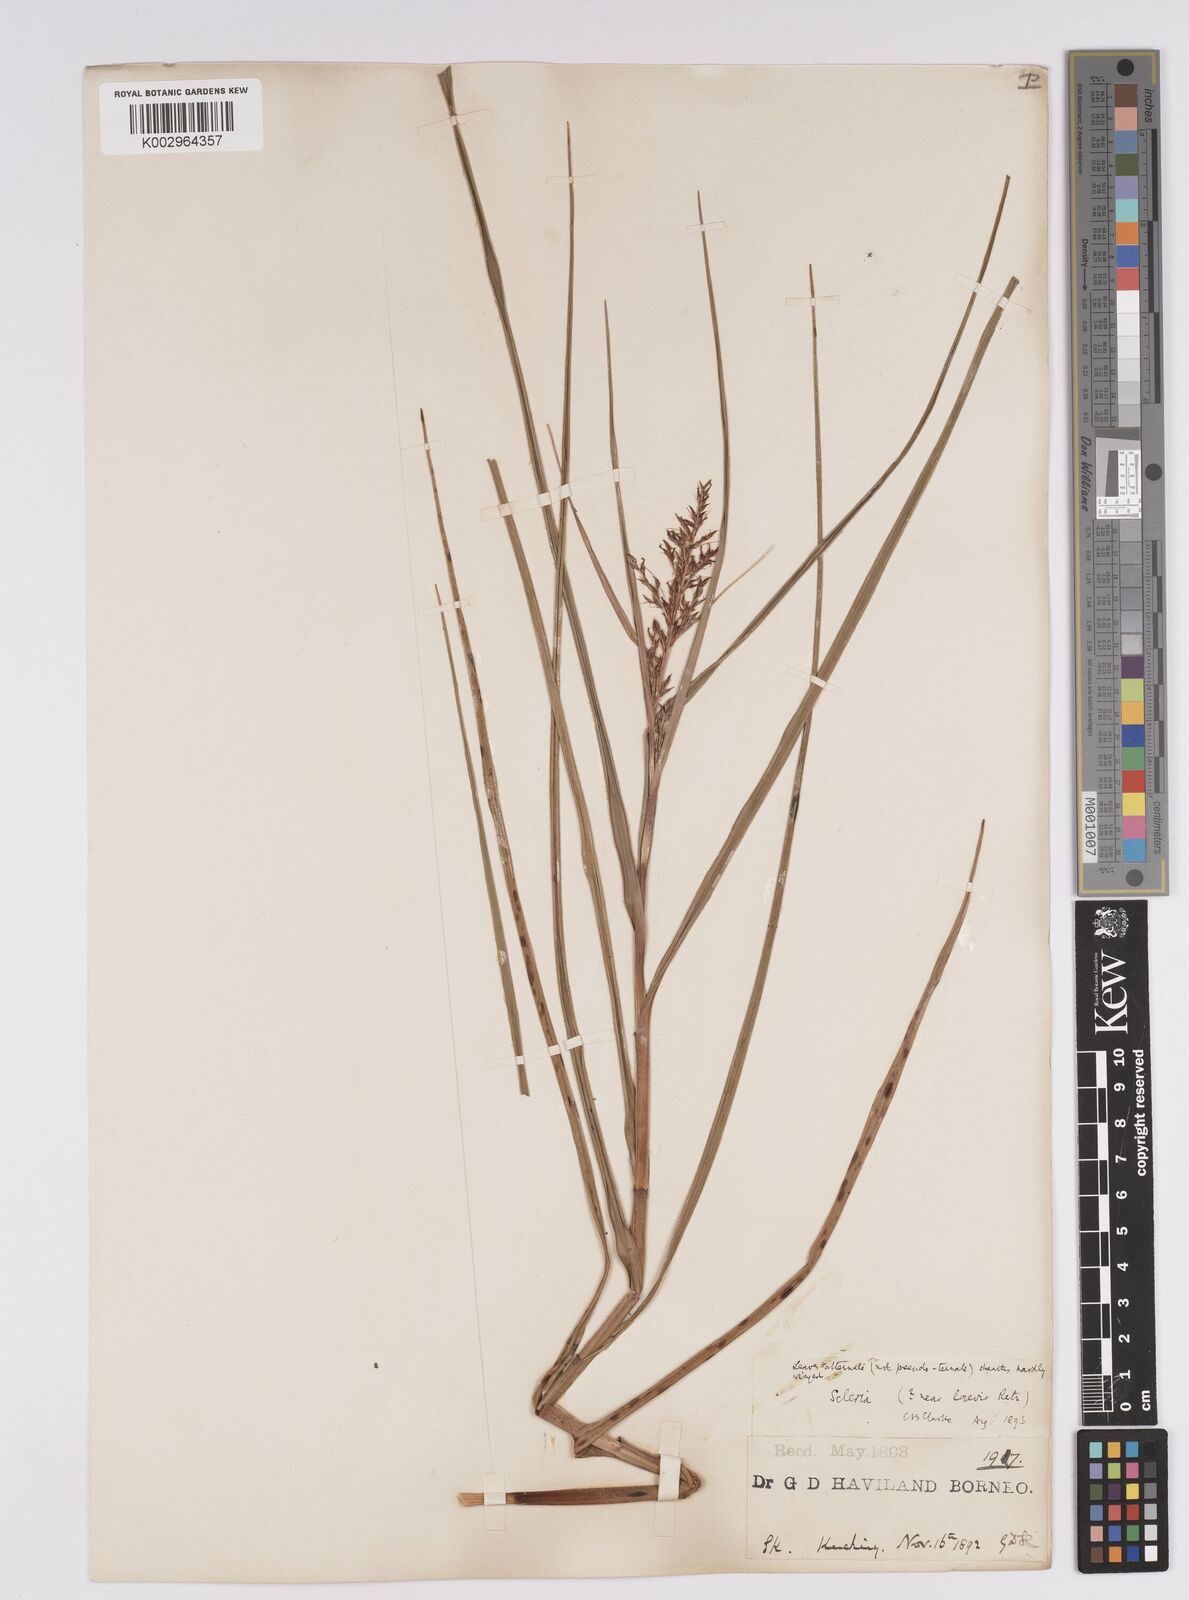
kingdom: Plantae
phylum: Tracheophyta
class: Liliopsida
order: Poales
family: Cyperaceae
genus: Scleria
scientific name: Scleria levis
